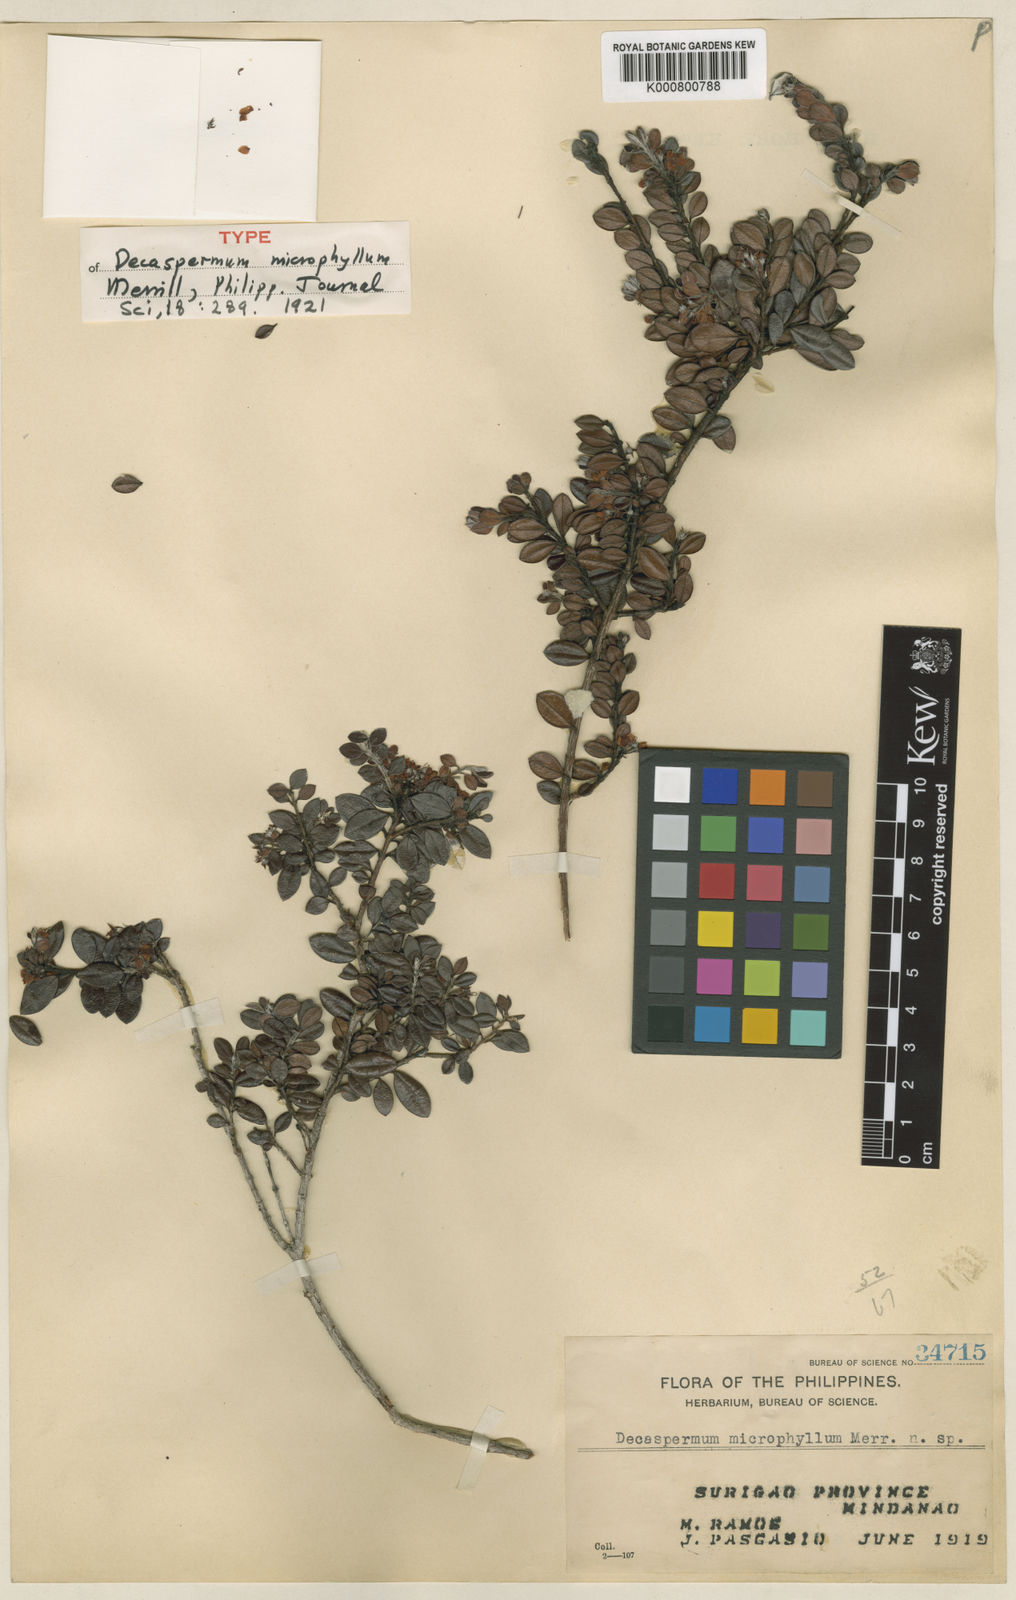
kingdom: Plantae
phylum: Tracheophyta
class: Magnoliopsida
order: Myrtales
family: Myrtaceae
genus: Decaspermum
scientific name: Decaspermum vitis-idaea
